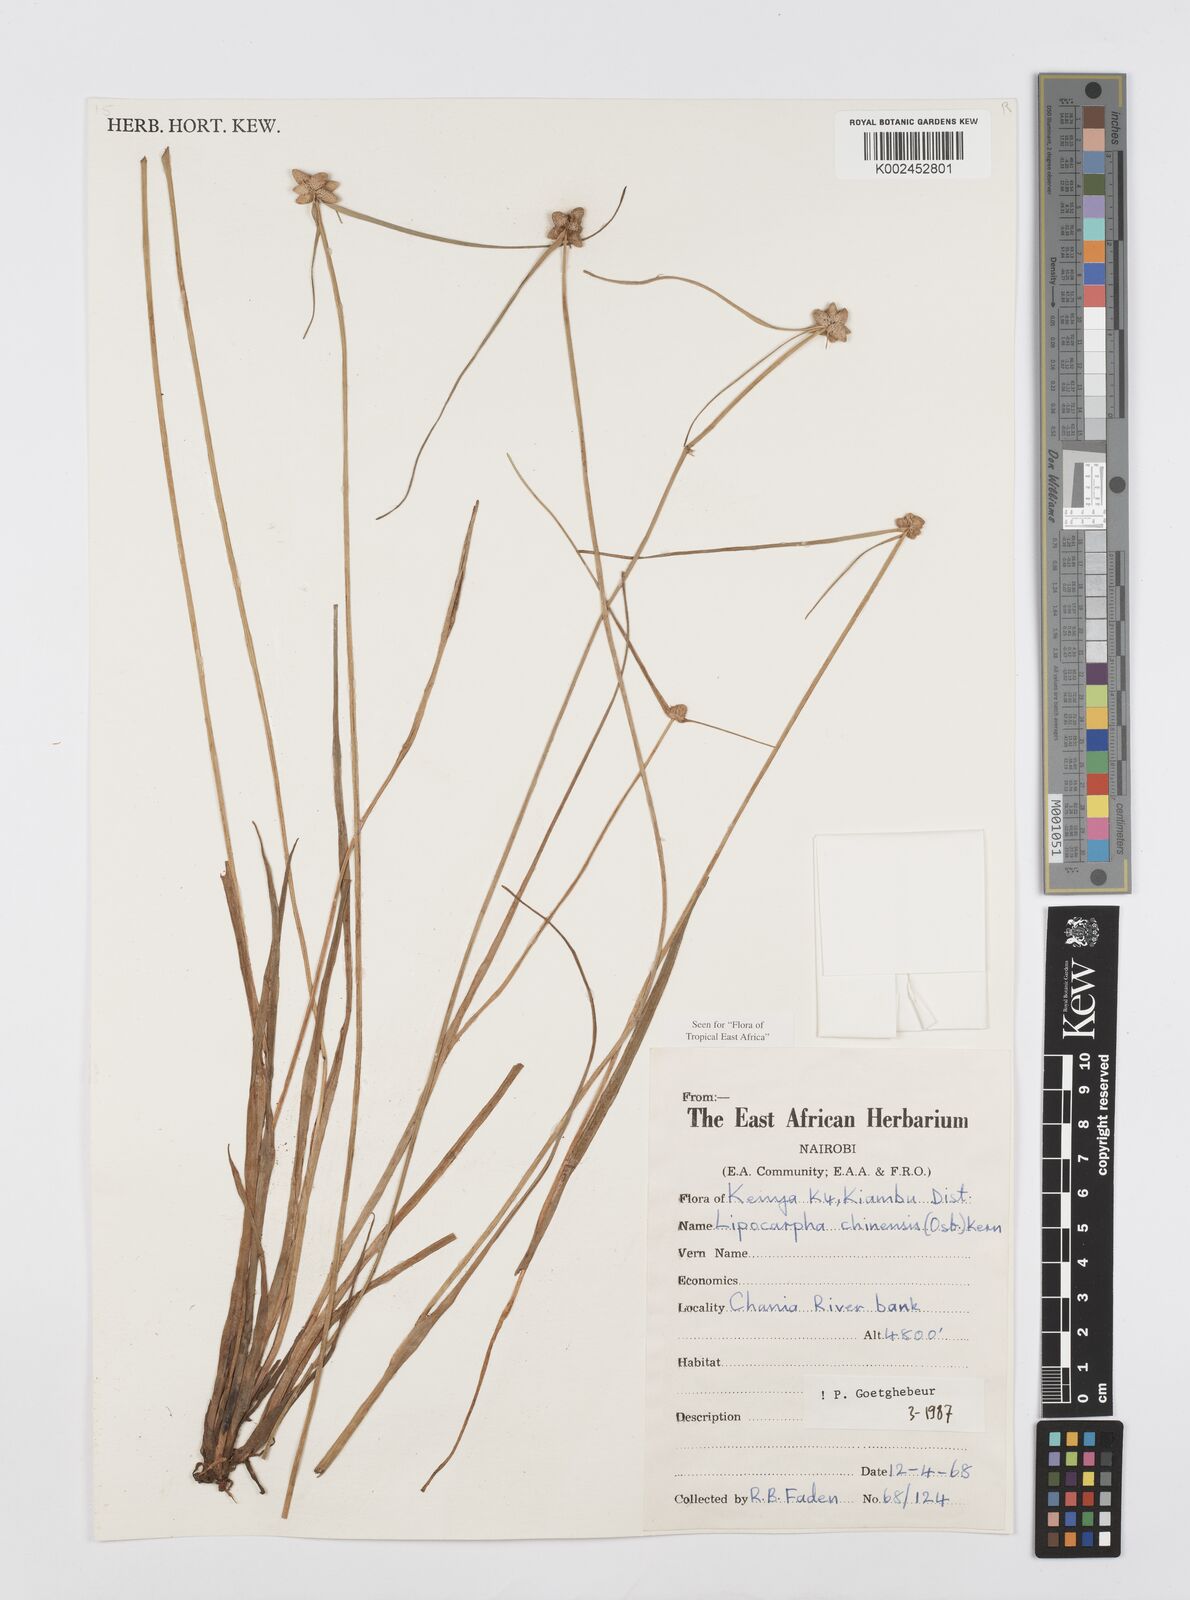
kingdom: Plantae
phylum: Tracheophyta
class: Liliopsida
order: Poales
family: Cyperaceae
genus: Cyperus
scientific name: Cyperus albescens
